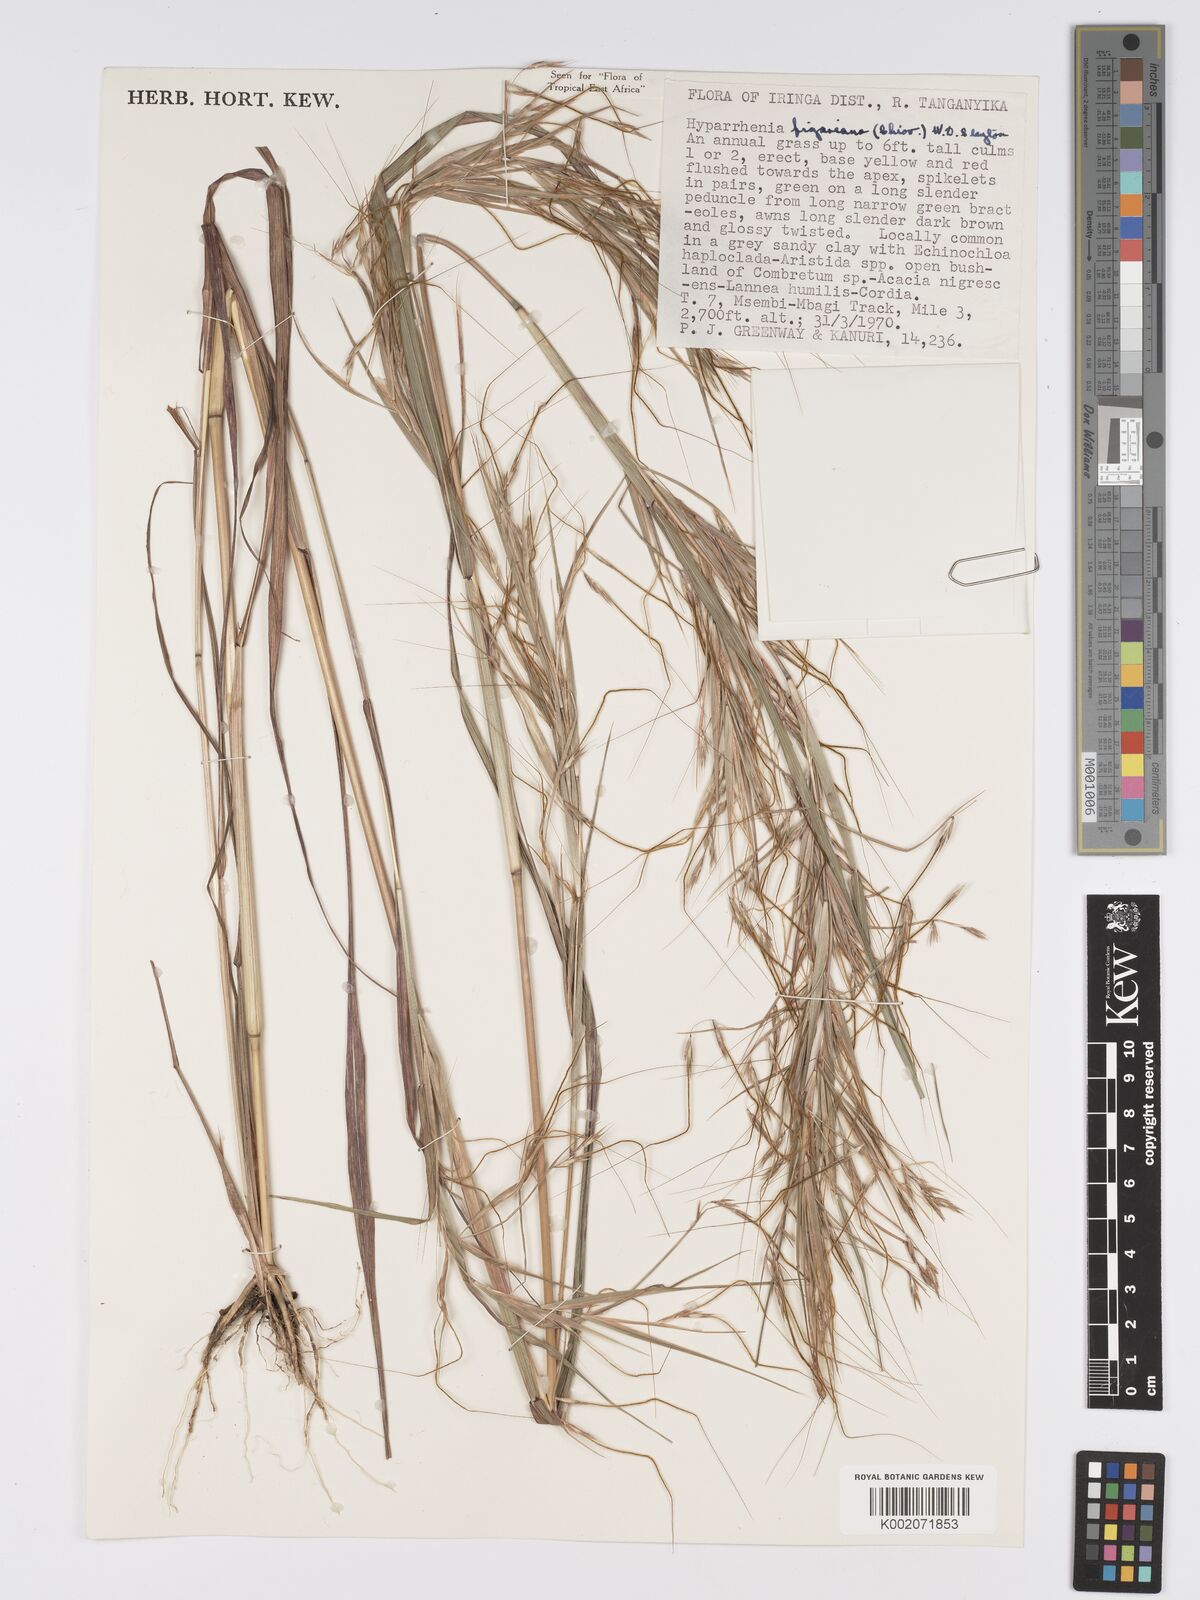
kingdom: Plantae
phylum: Tracheophyta
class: Liliopsida
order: Poales
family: Poaceae
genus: Hyparrhenia
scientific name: Hyparrhenia figariana
